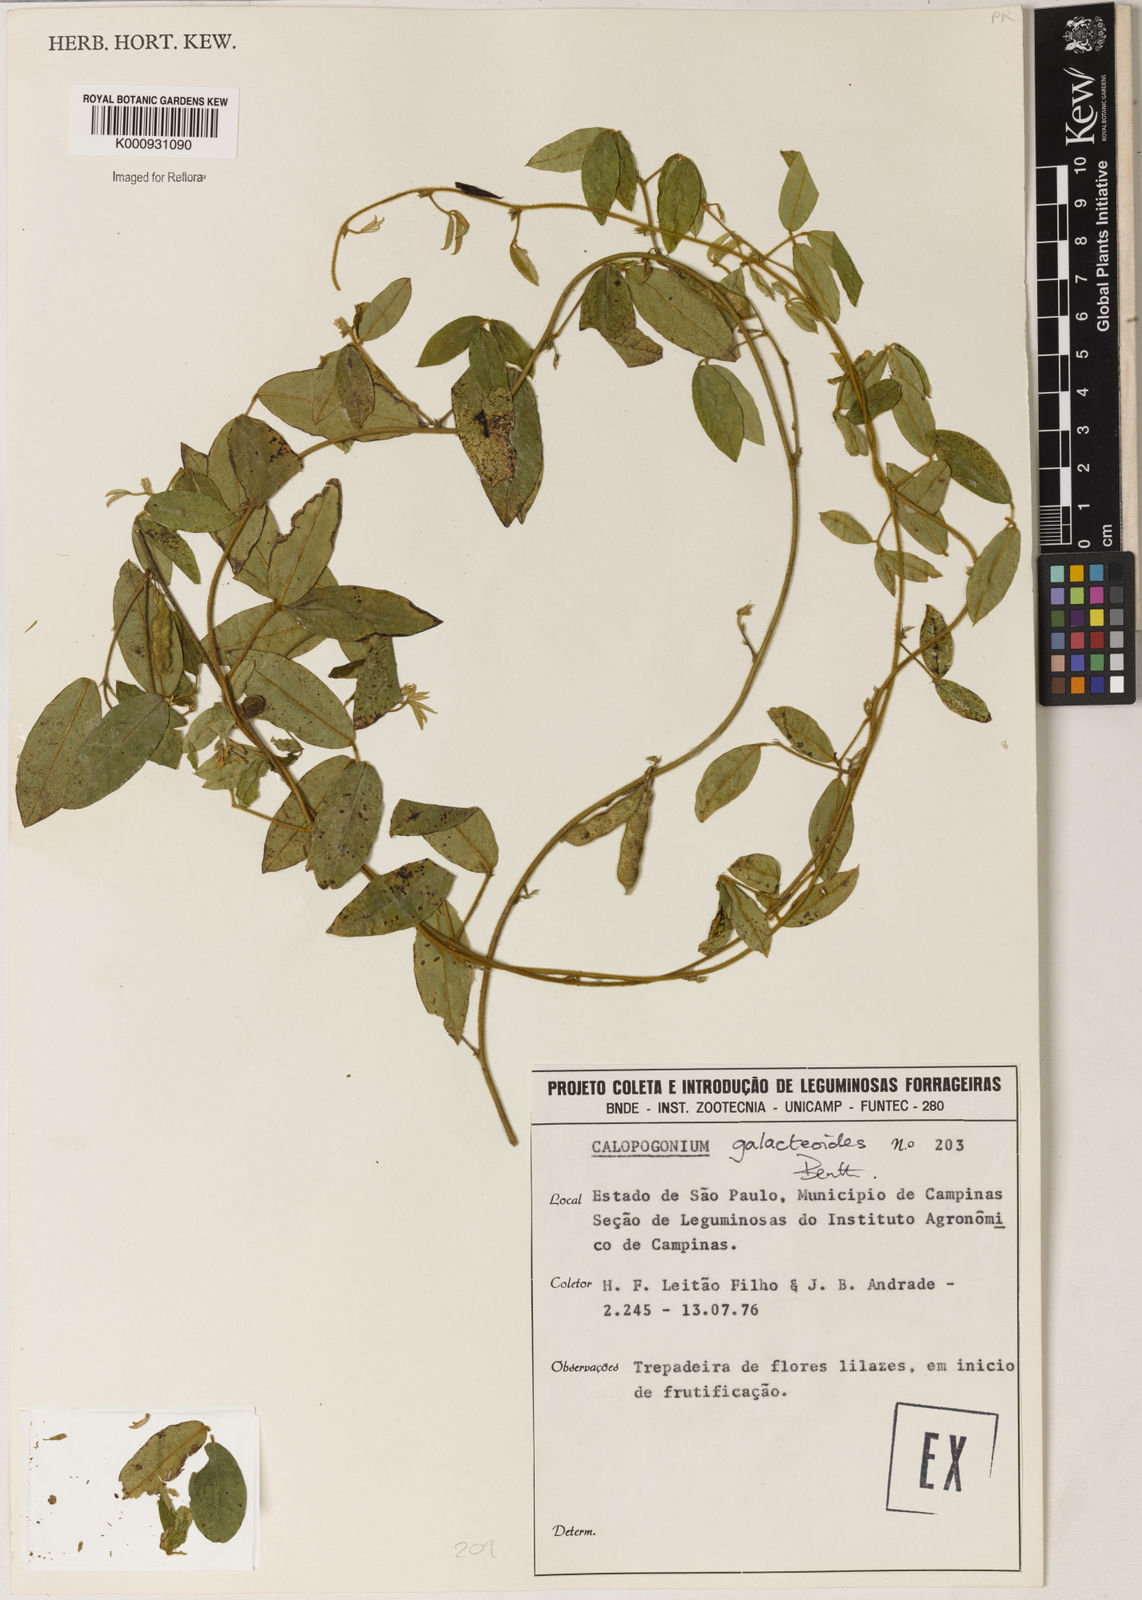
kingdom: Plantae
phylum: Tracheophyta
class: Magnoliopsida
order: Fabales
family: Fabaceae
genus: Calopogonium
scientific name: Calopogonium galactioides
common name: Legume
